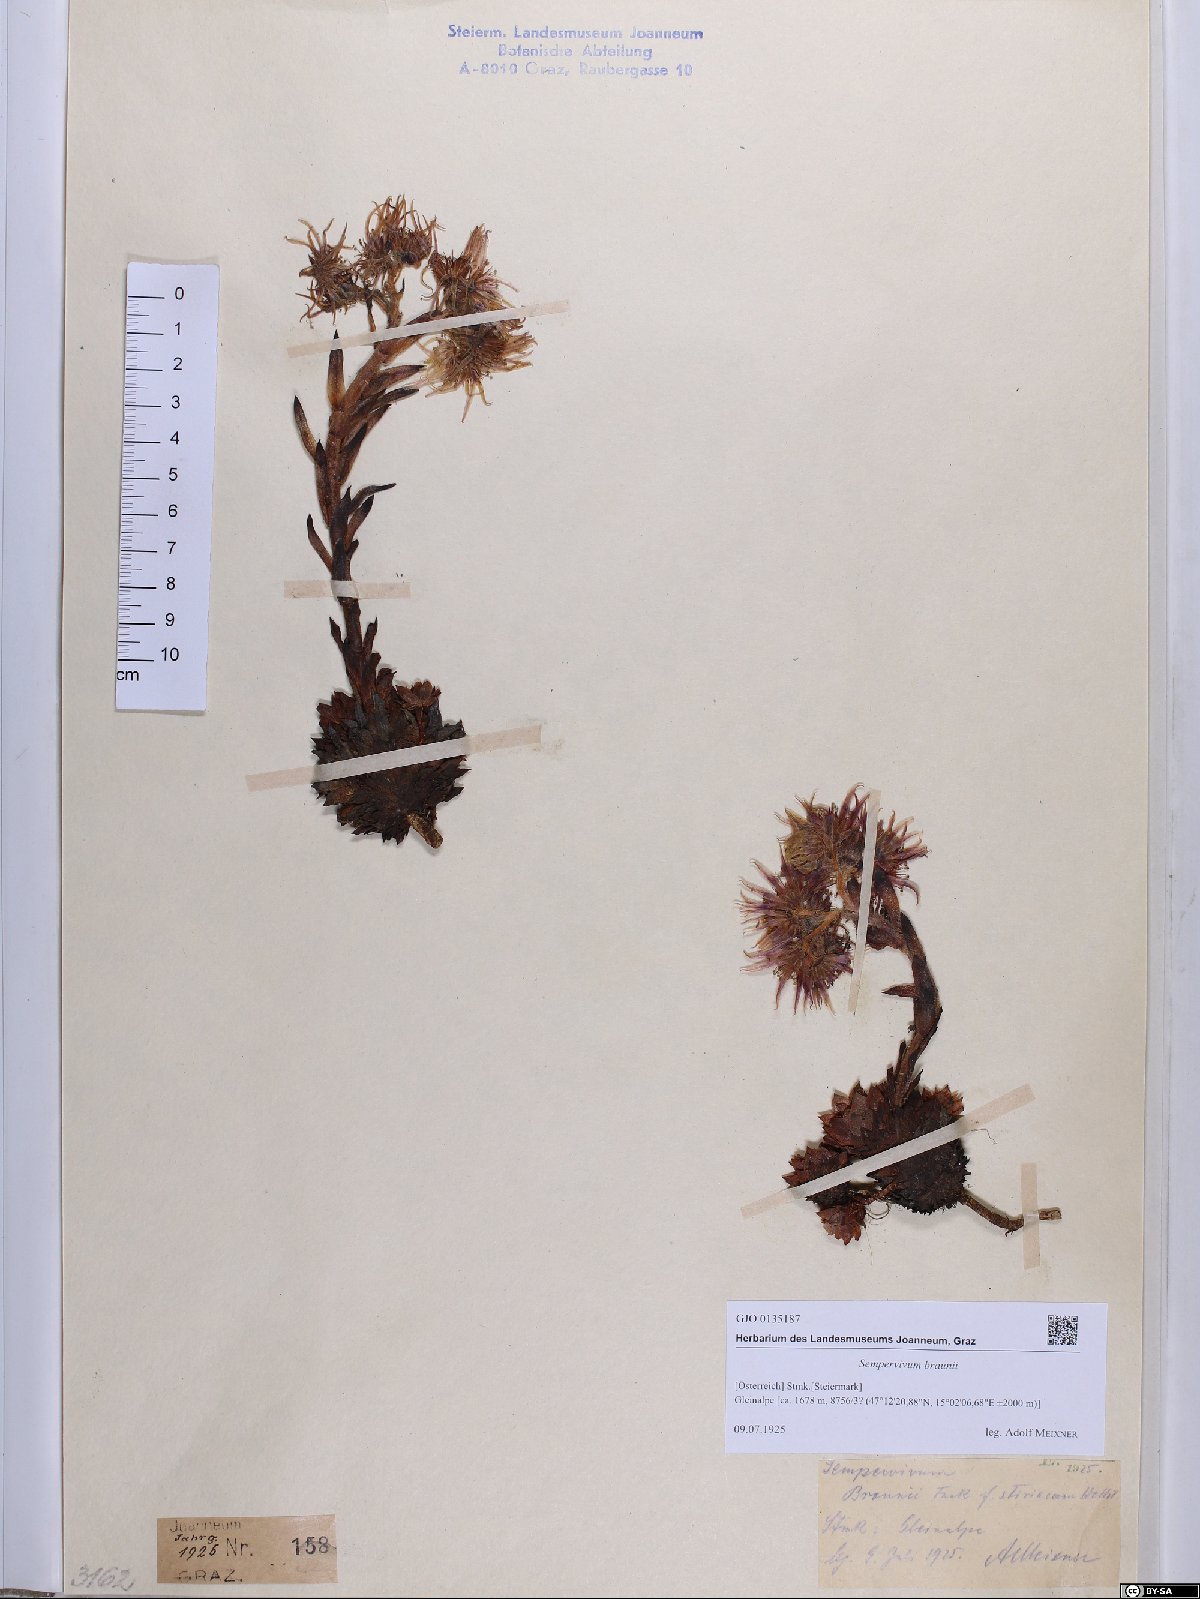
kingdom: Plantae
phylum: Tracheophyta
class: Magnoliopsida
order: Saxifragales
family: Crassulaceae
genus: Sempervivum
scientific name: Sempervivum montanum
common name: Mountain house-leek
